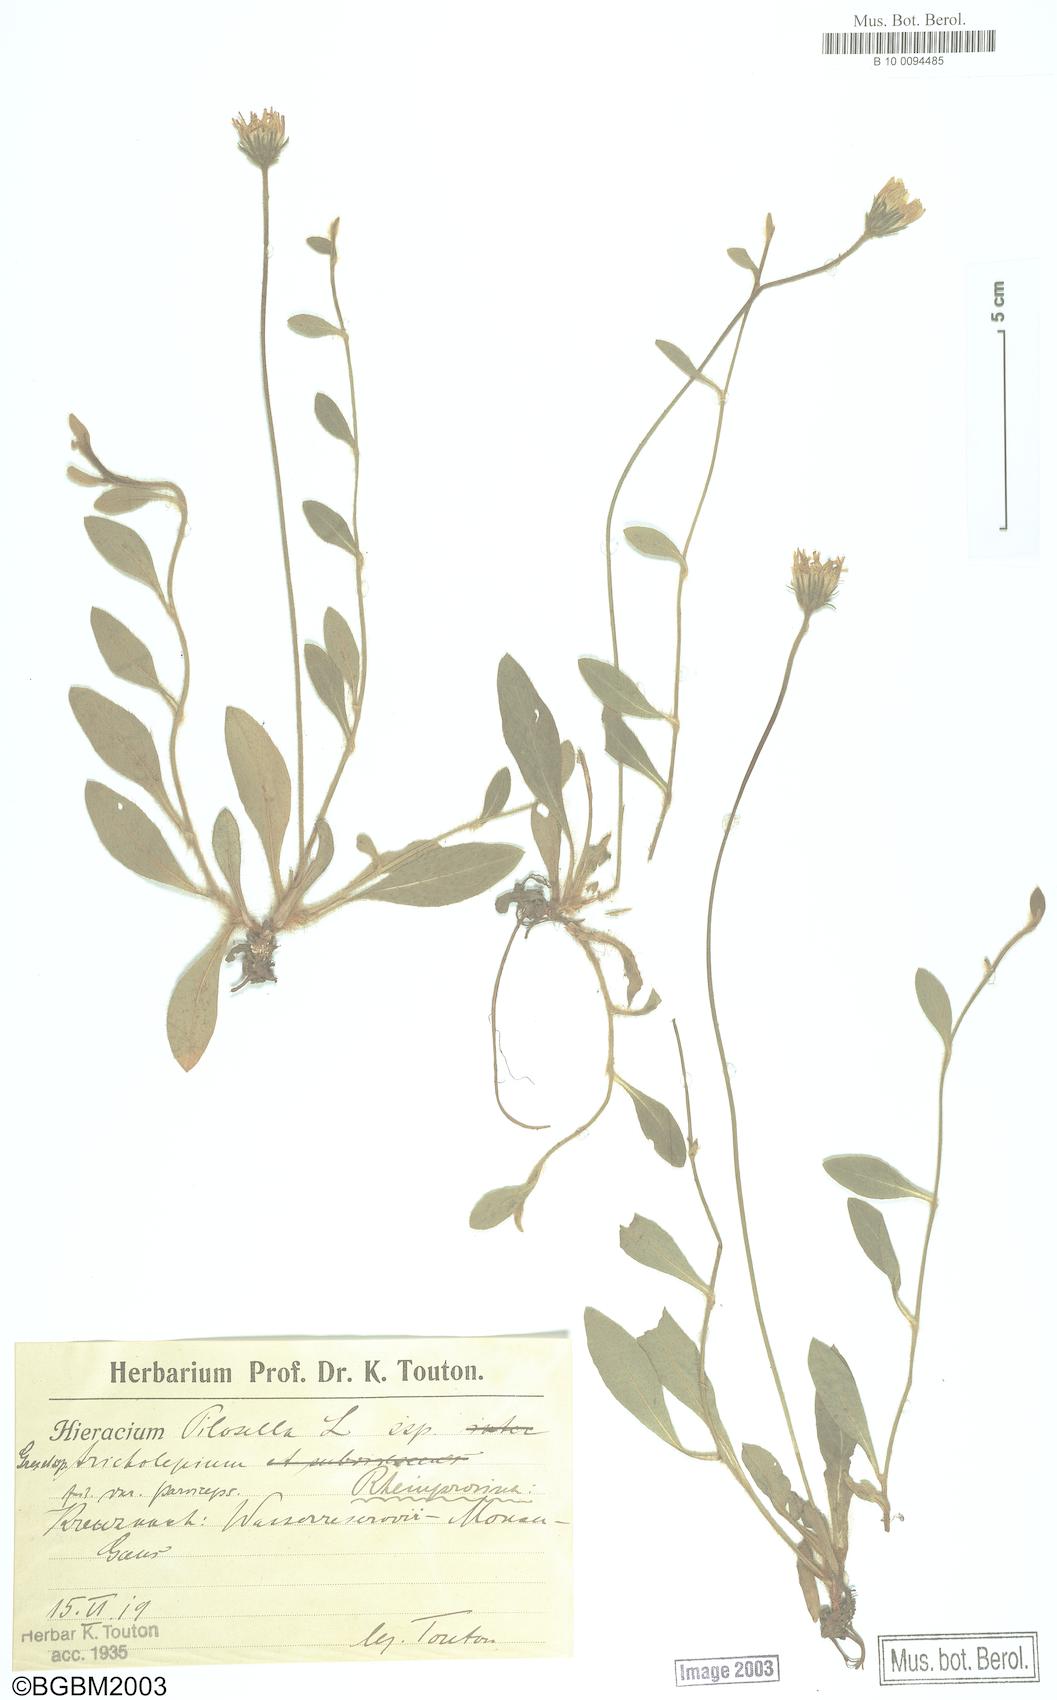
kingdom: Plantae
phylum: Tracheophyta
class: Magnoliopsida
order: Asterales
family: Asteraceae
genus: Pilosella
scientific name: Pilosella officinarum
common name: Mouse-ear hawkweed
